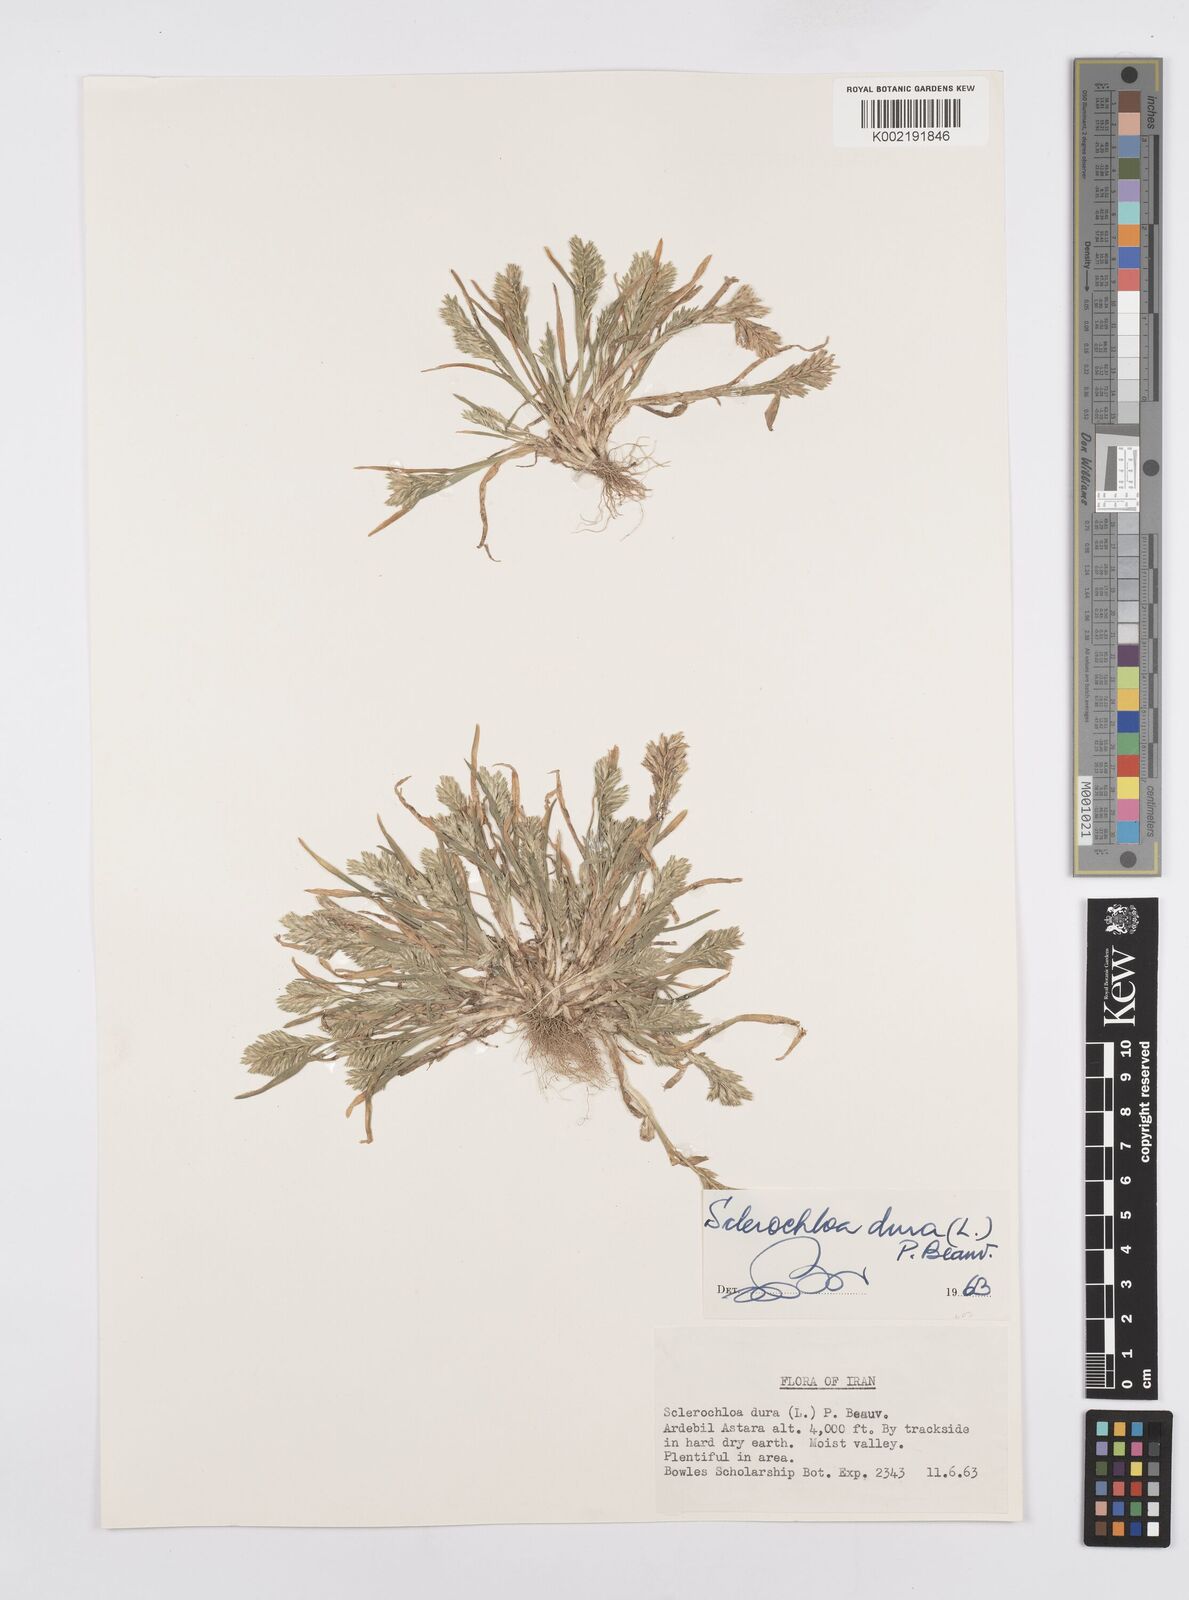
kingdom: Plantae
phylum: Tracheophyta
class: Liliopsida
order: Poales
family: Poaceae
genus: Sclerochloa
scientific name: Sclerochloa dura
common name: Common hardgrass
